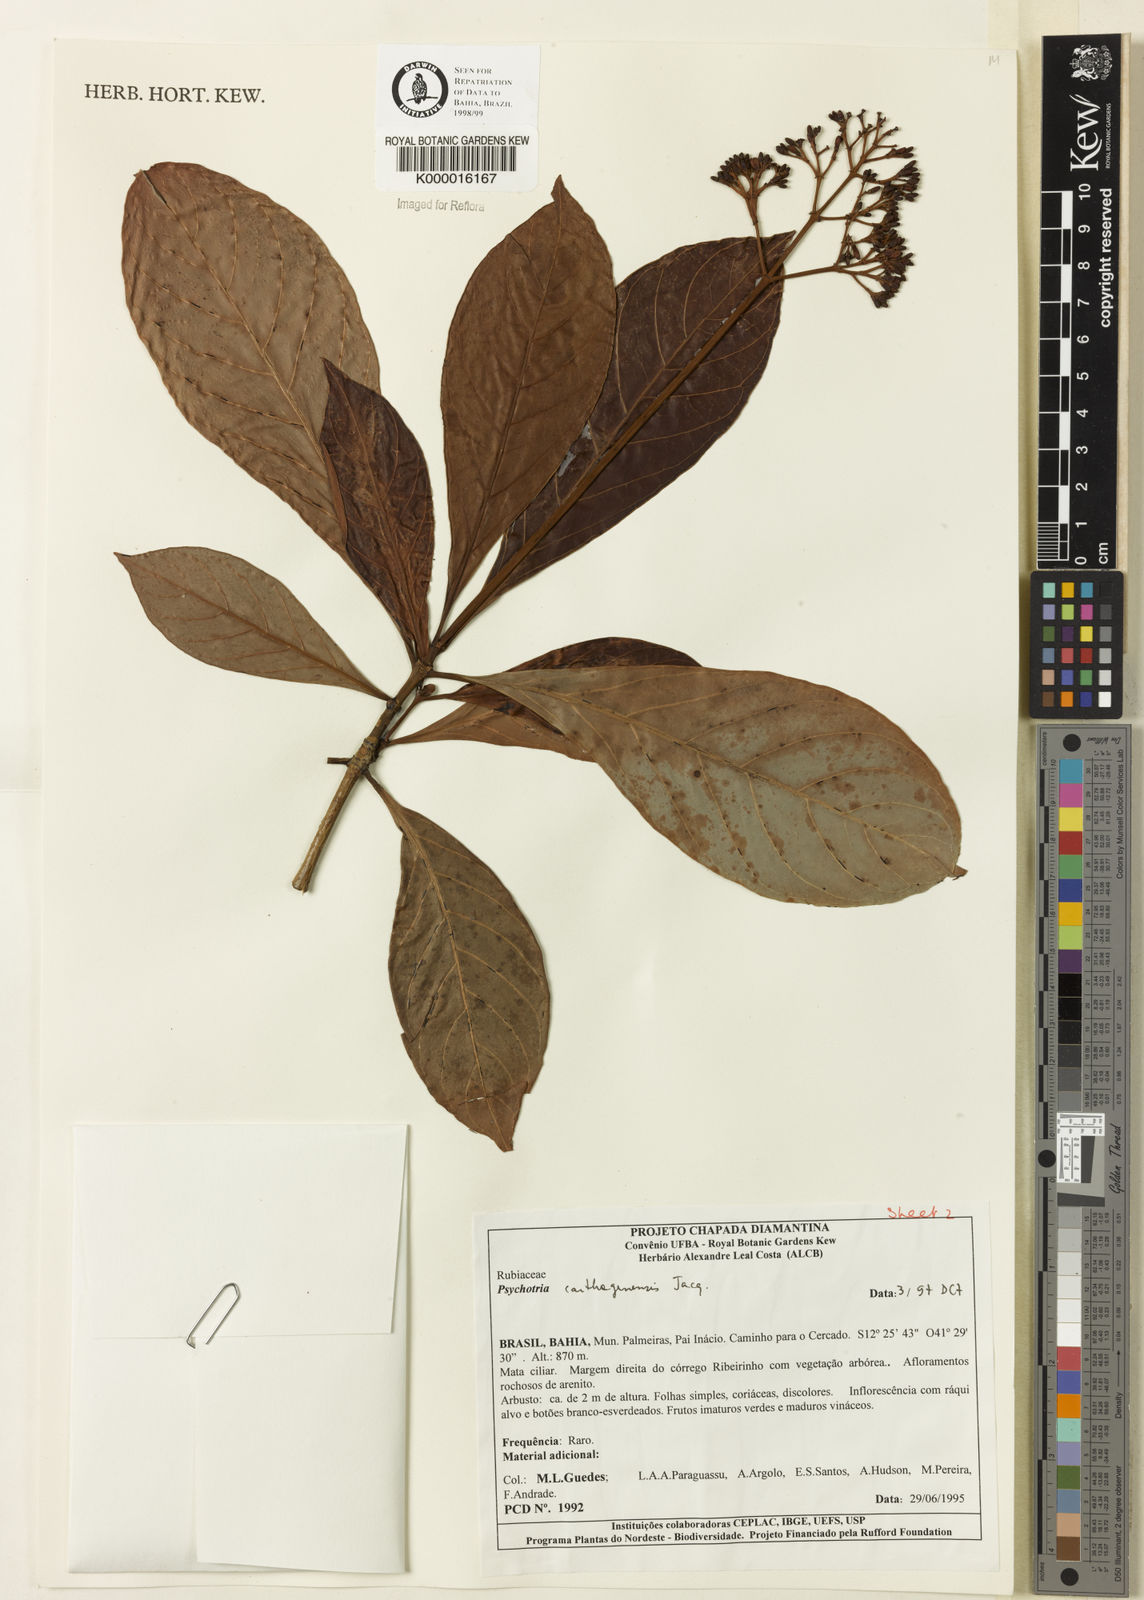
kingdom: Plantae
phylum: Tracheophyta
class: Magnoliopsida
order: Gentianales
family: Rubiaceae
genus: Psychotria
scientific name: Psychotria carthagenensis
